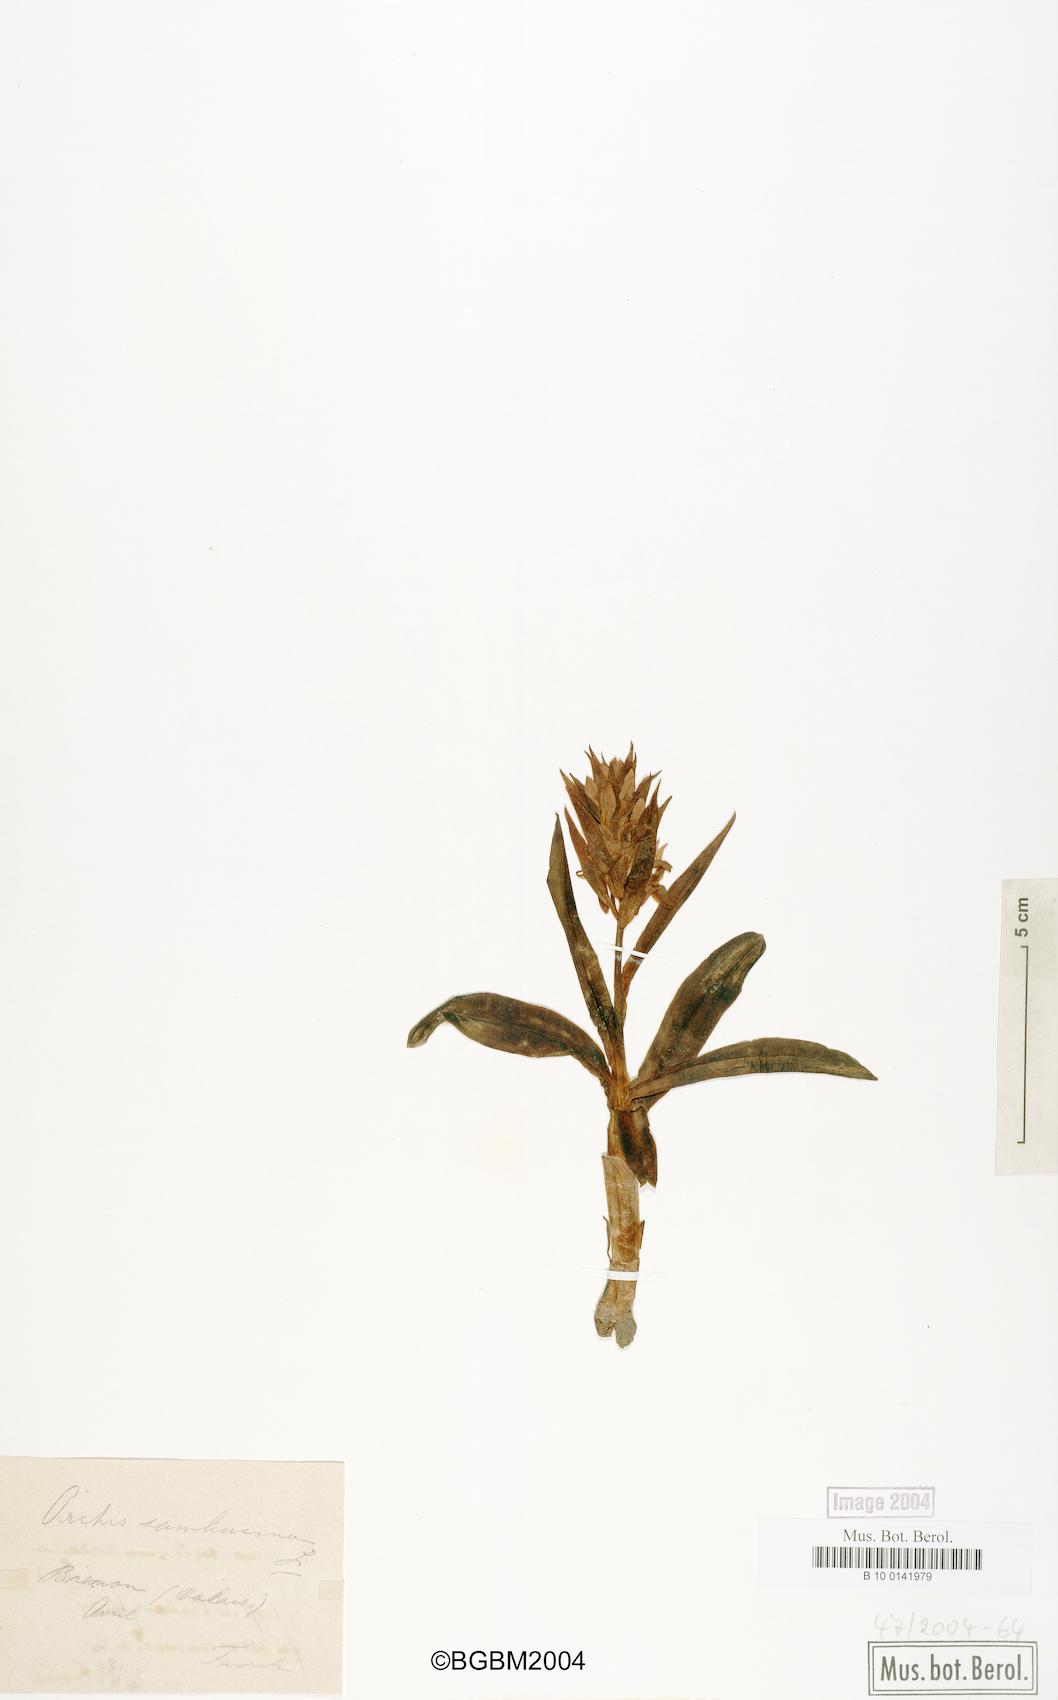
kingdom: Plantae
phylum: Tracheophyta
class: Liliopsida
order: Asparagales
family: Orchidaceae
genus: Dactylorhiza
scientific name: Dactylorhiza sambucina
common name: Elder-flowered orchid
